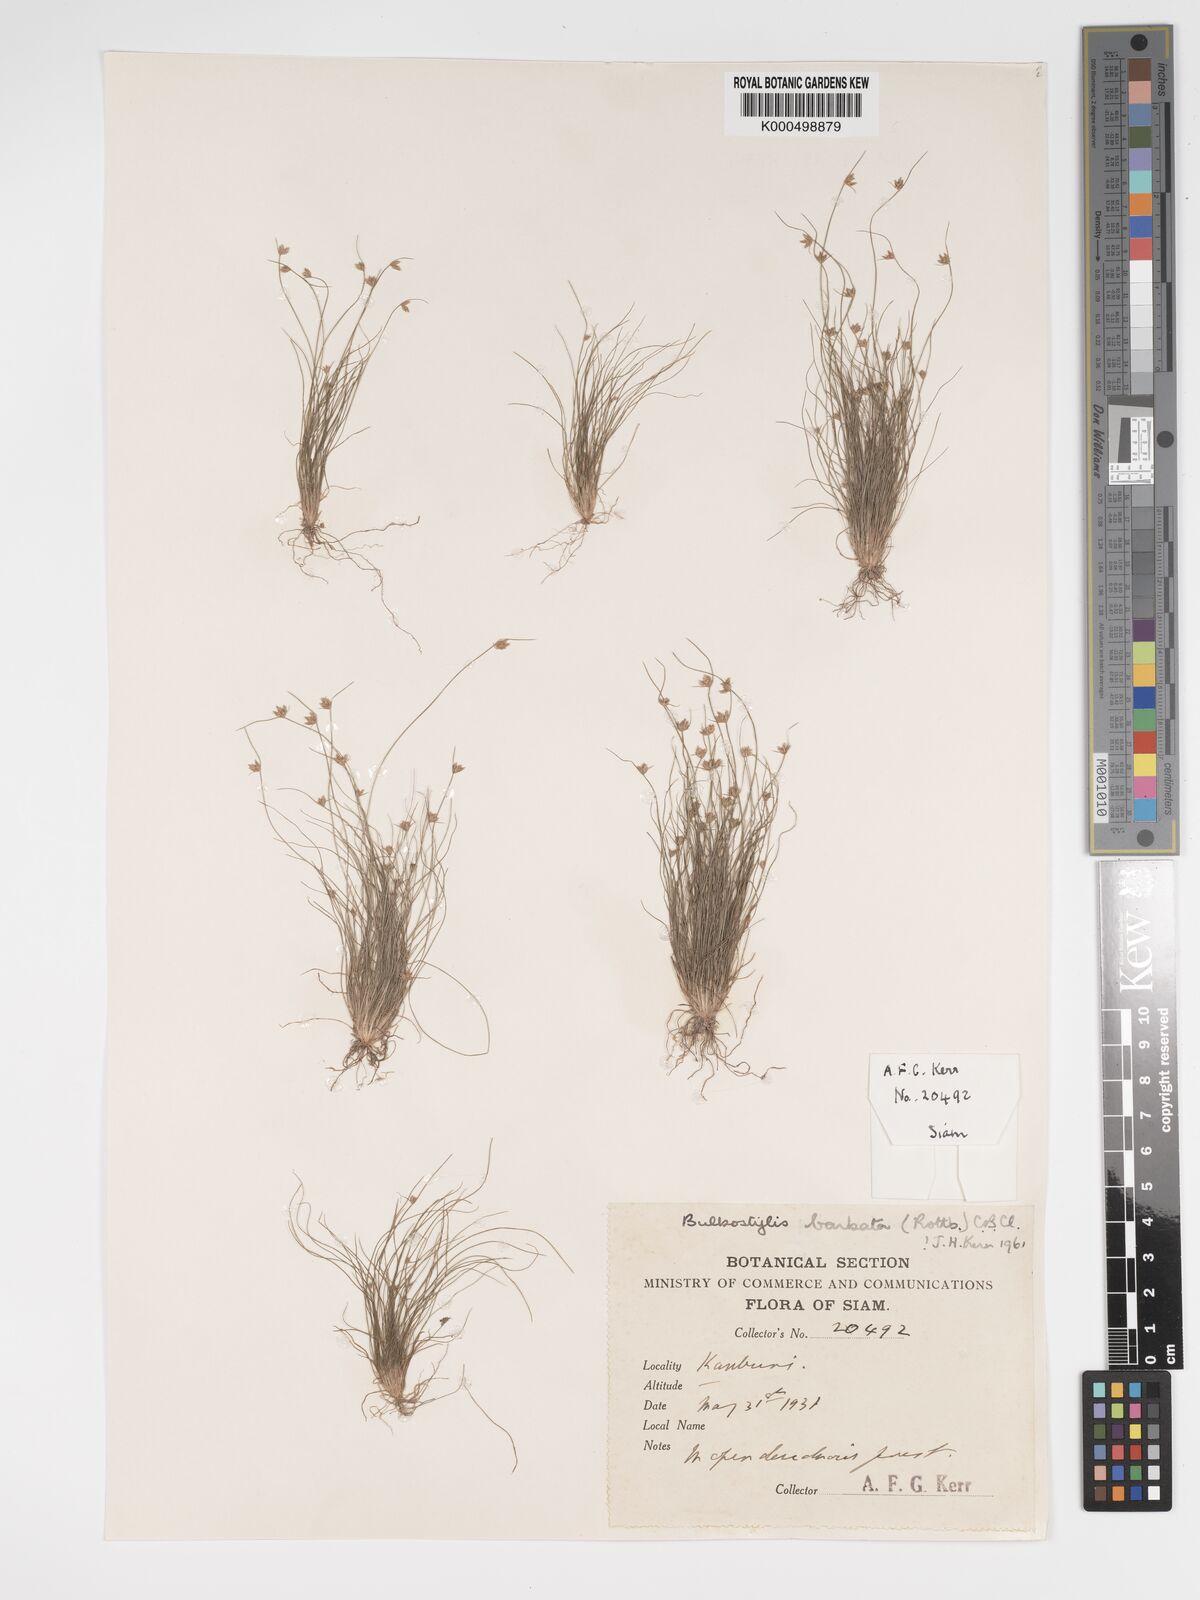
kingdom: Plantae
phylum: Tracheophyta
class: Liliopsida
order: Poales
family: Cyperaceae
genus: Bulbostylis
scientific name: Bulbostylis barbata
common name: Watergrass
